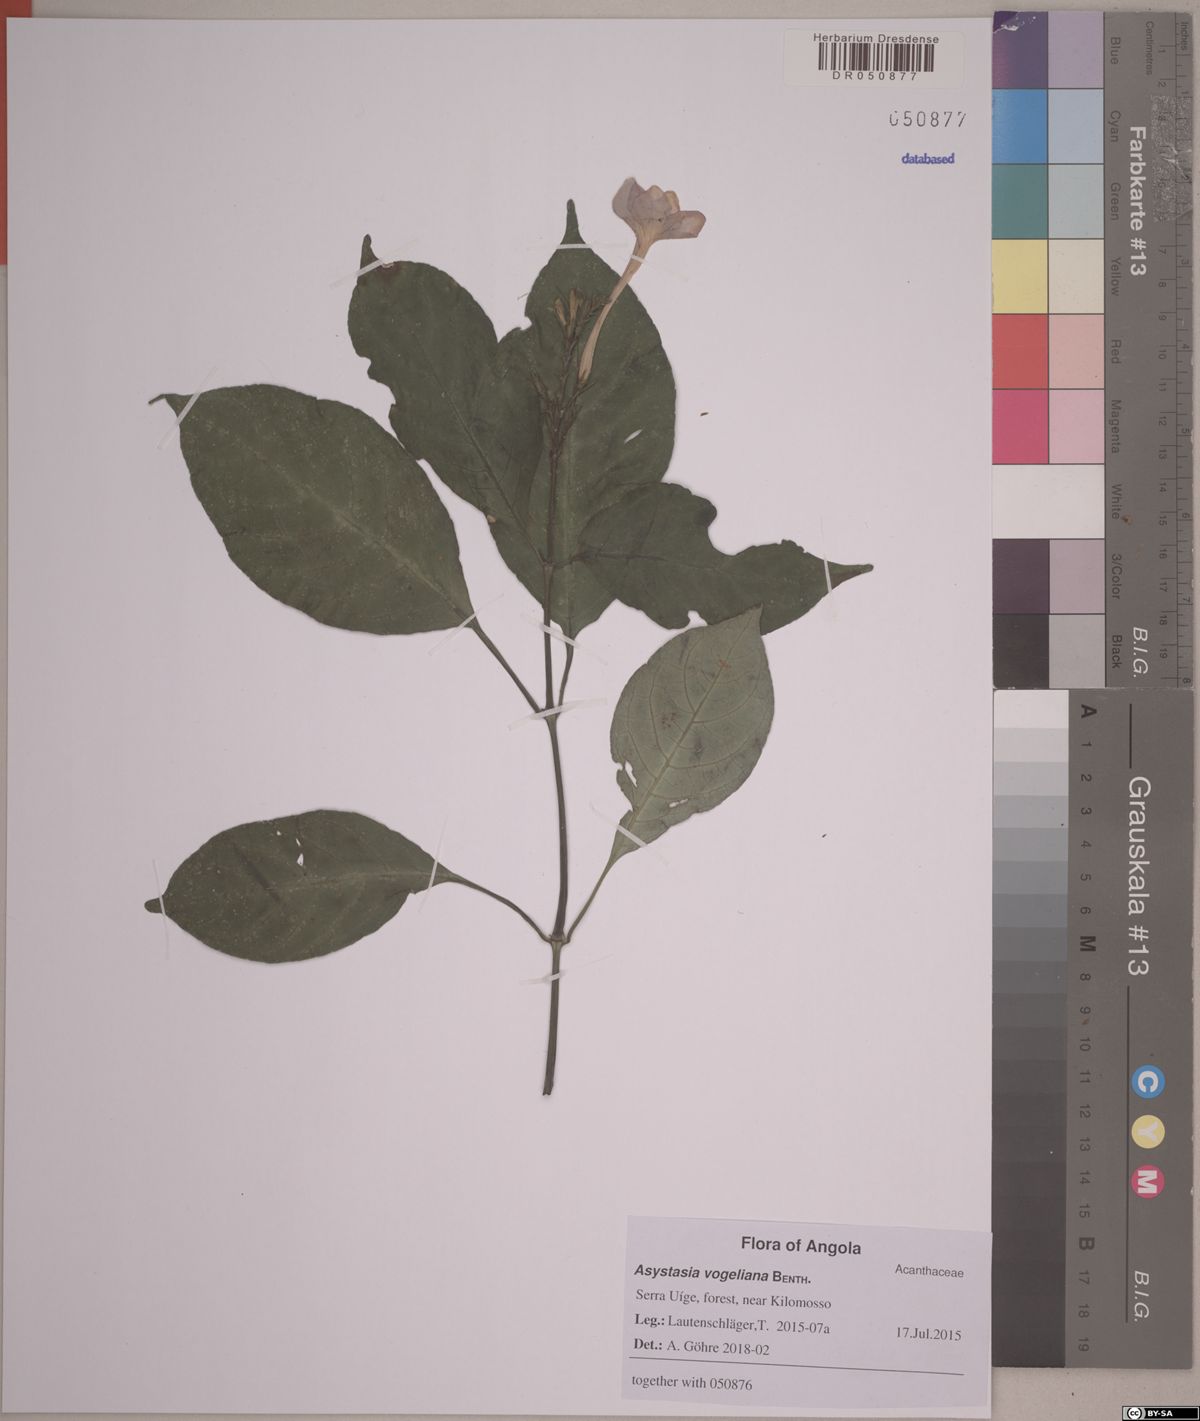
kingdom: Plantae
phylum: Tracheophyta
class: Magnoliopsida
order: Lamiales
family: Acanthaceae
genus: Asystasia
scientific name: Asystasia vogeliana
